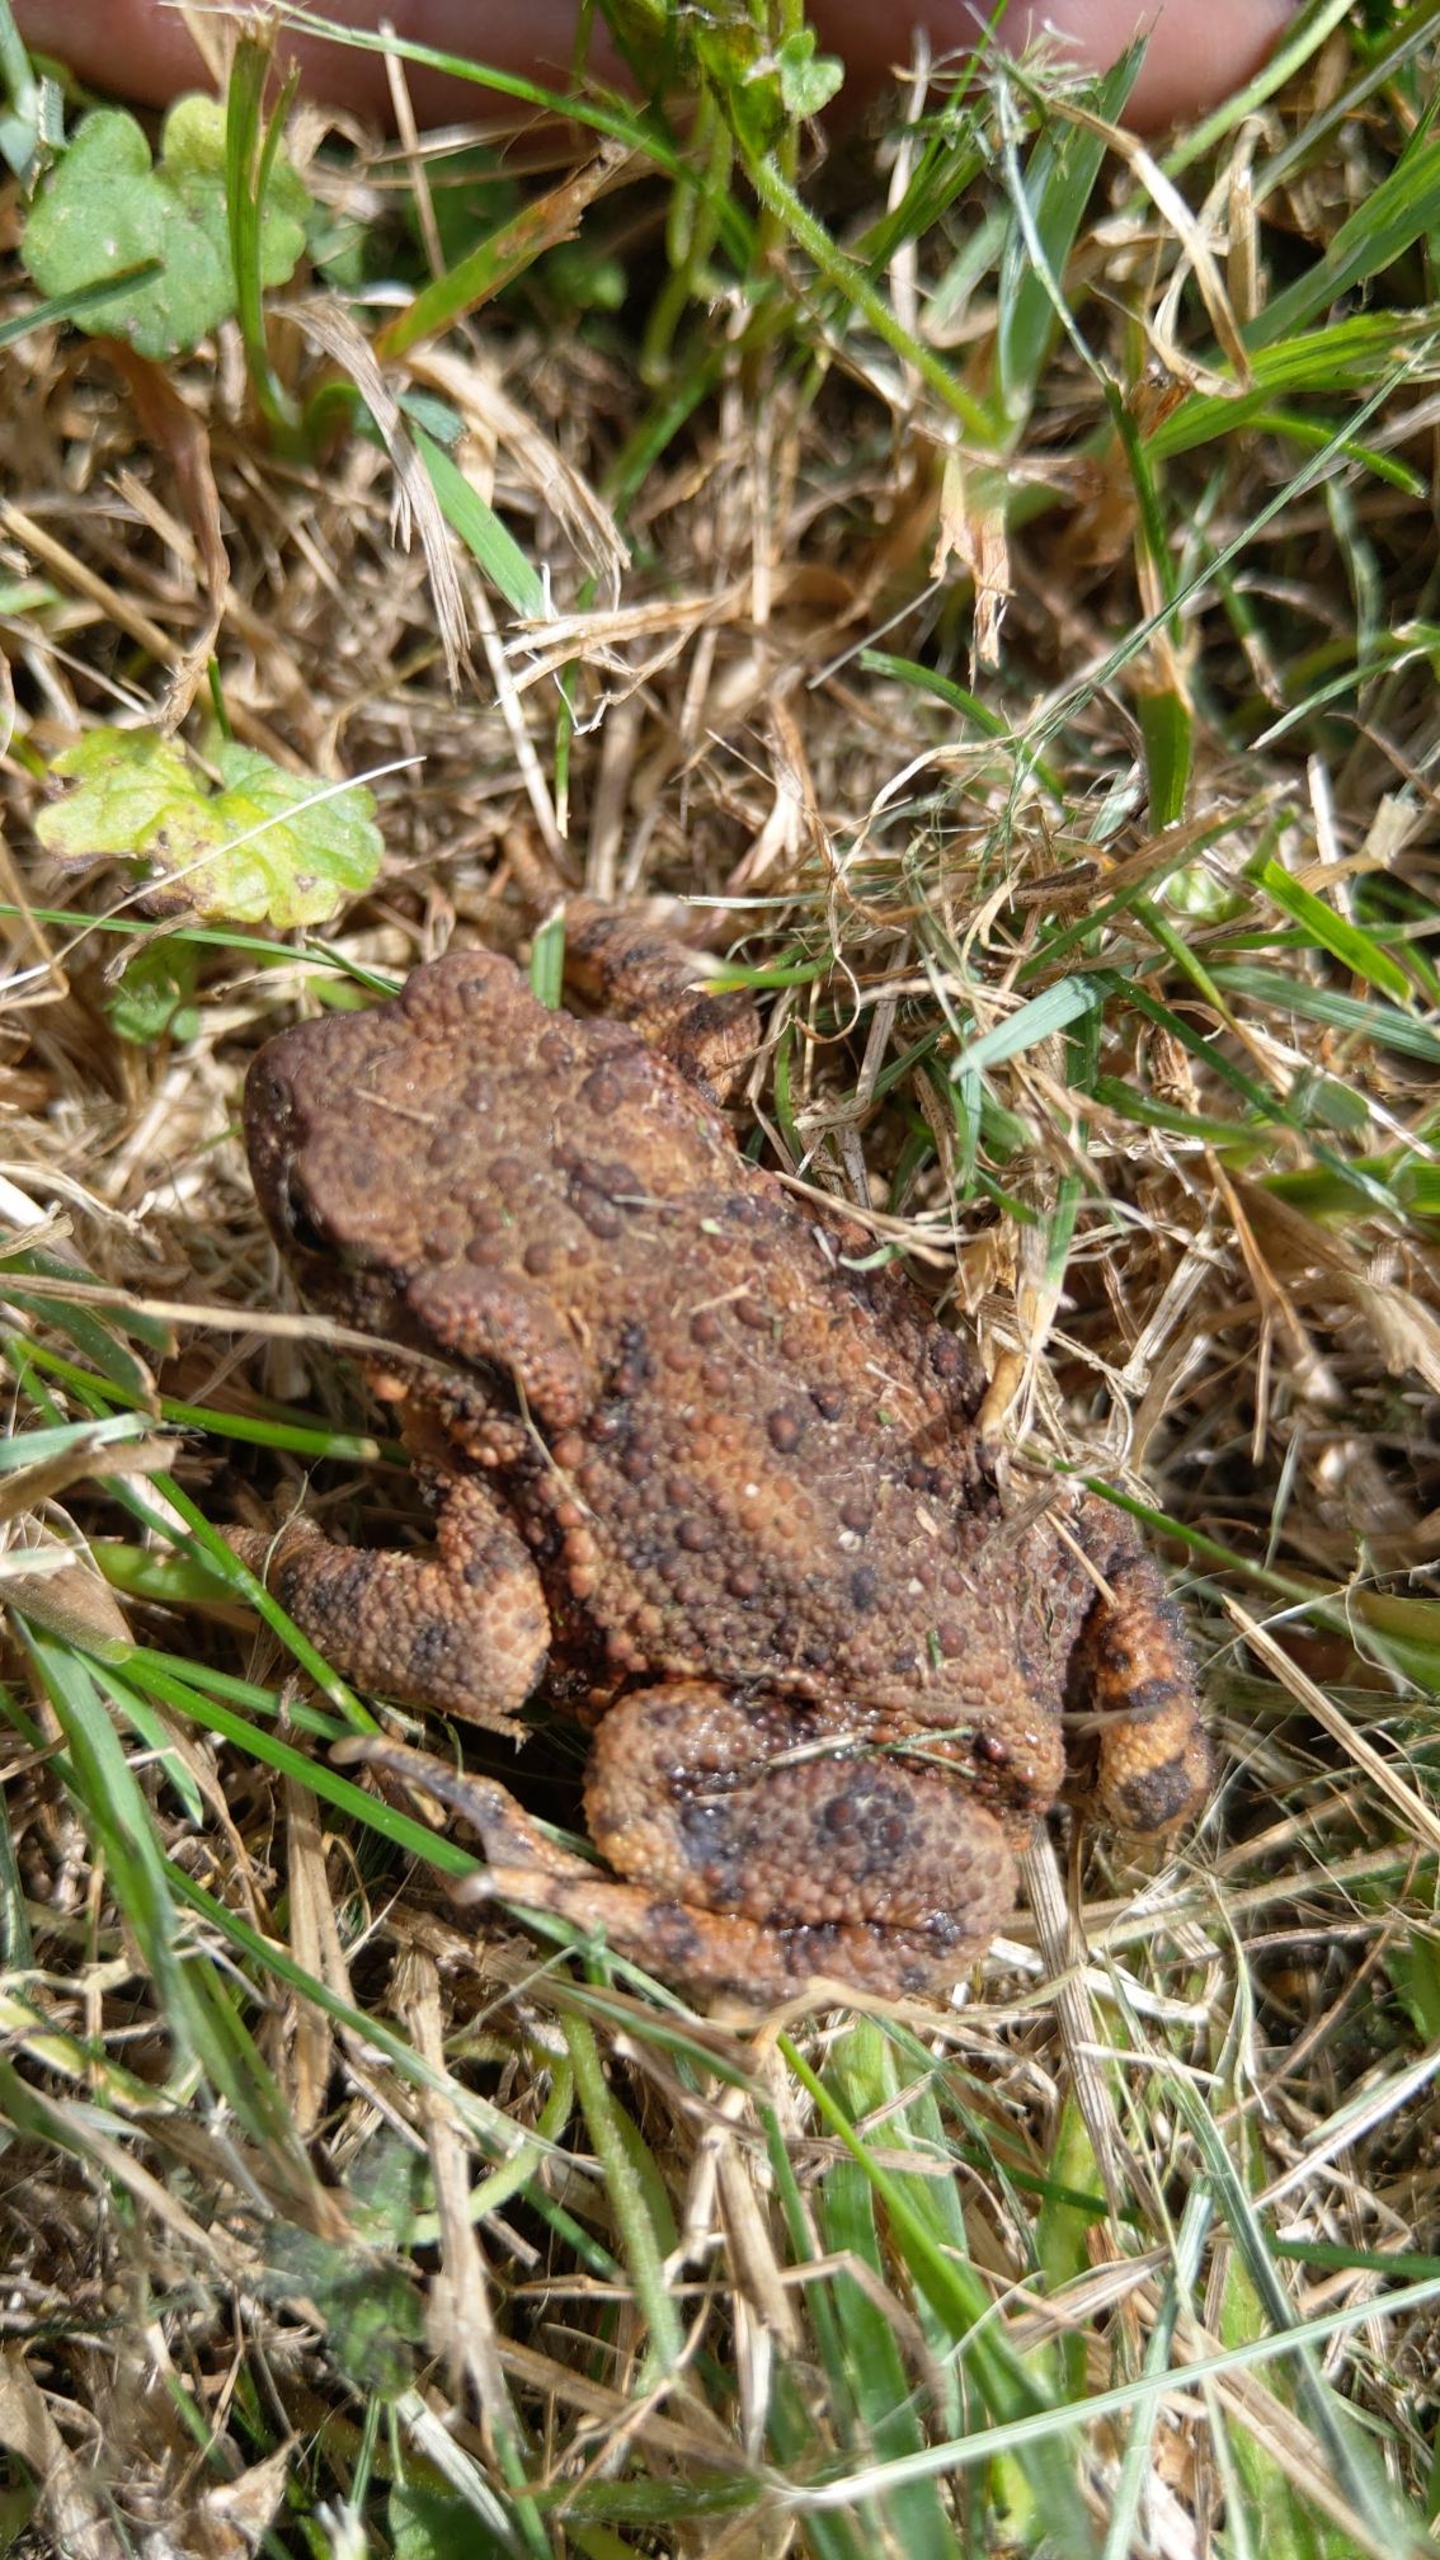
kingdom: Animalia
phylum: Chordata
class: Amphibia
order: Anura
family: Bufonidae
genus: Bufo
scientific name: Bufo bufo
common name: Skrubtudse
